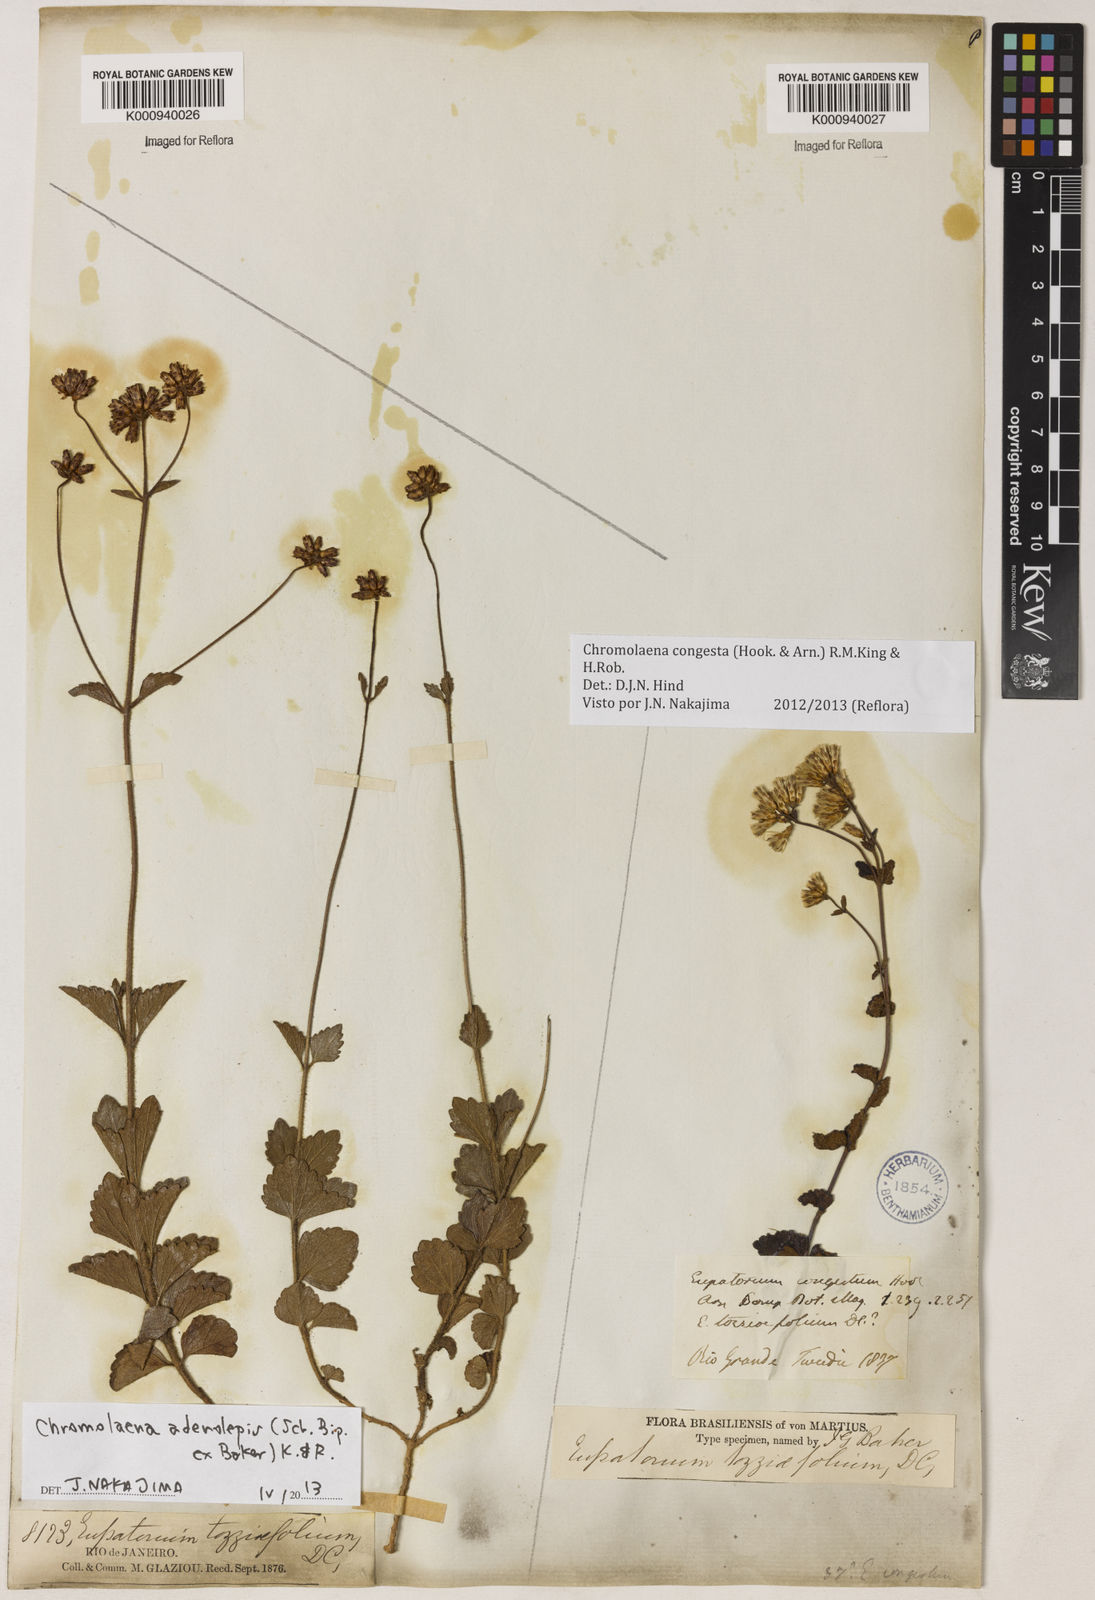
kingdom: Plantae
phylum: Tracheophyta
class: Magnoliopsida
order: Asterales
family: Asteraceae
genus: Chromolaena
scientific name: Chromolaena congesta
